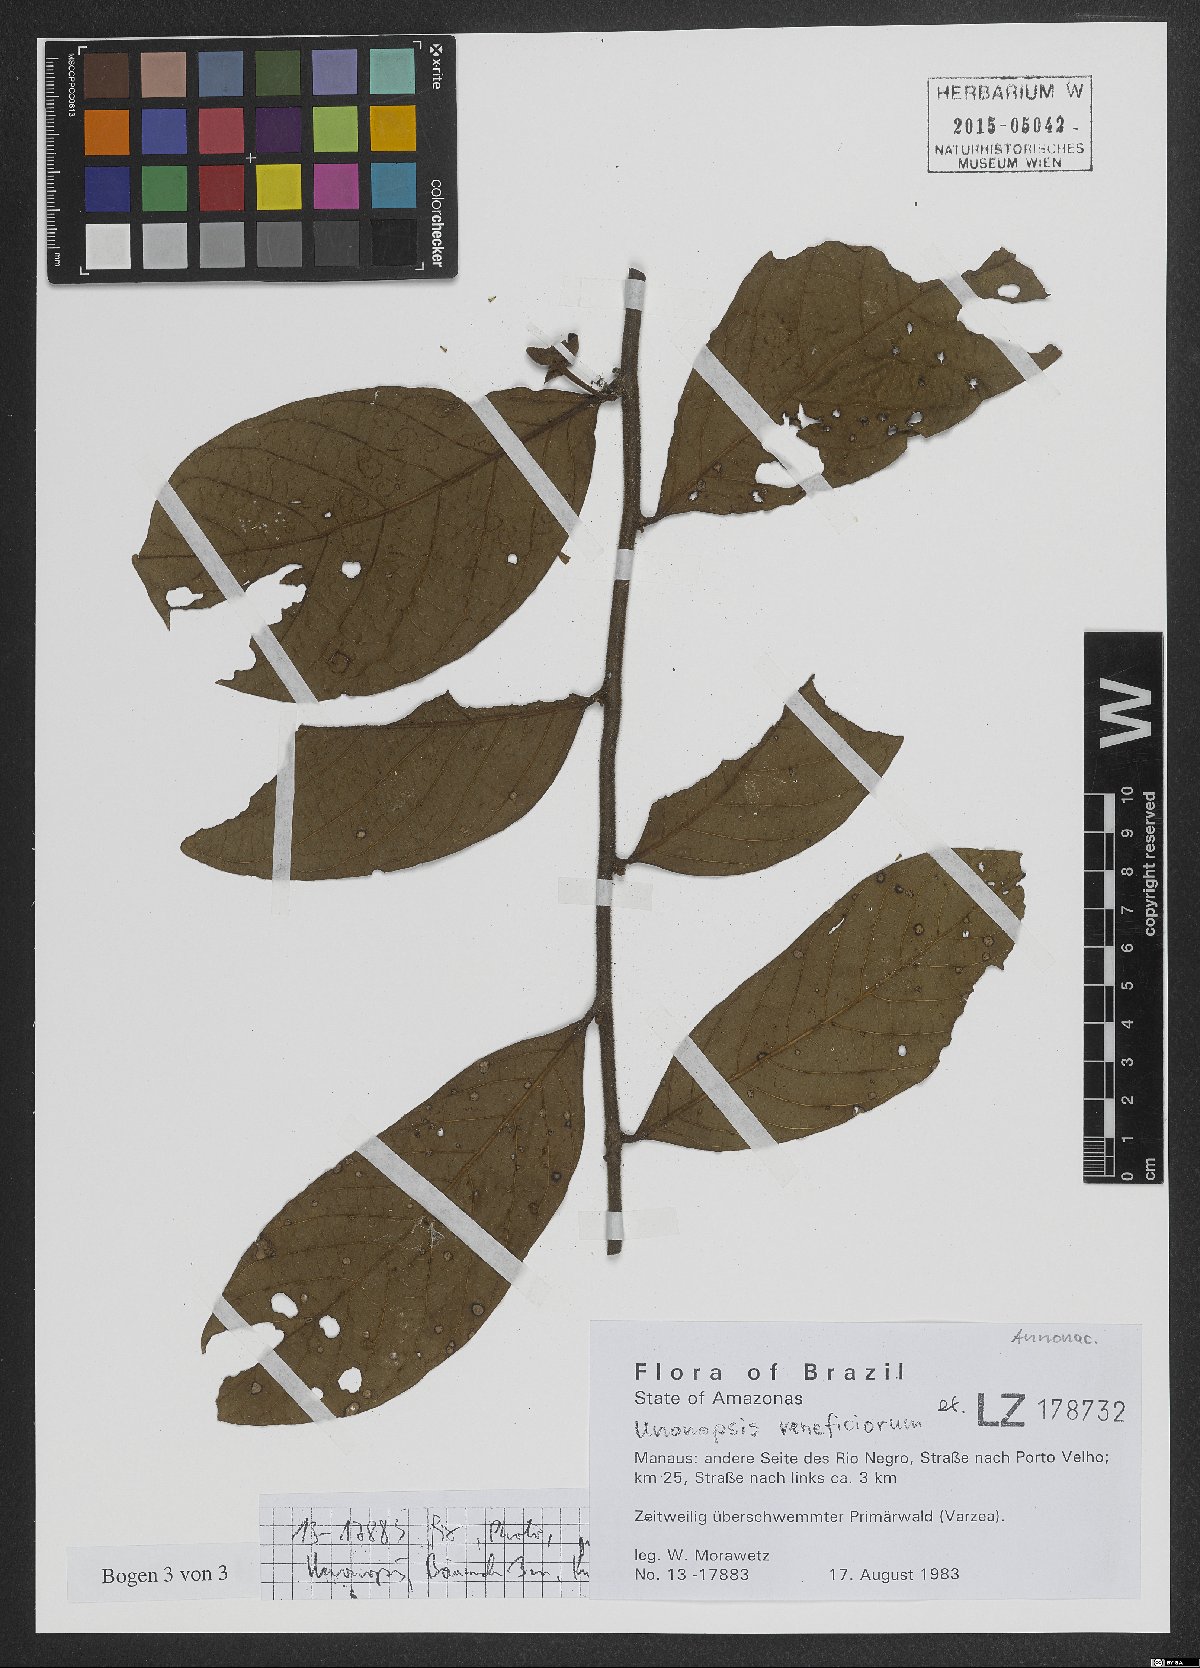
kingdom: Plantae
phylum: Tracheophyta
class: Magnoliopsida
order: Magnoliales
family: Annonaceae
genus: Unonopsis
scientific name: Unonopsis veneficiorum
